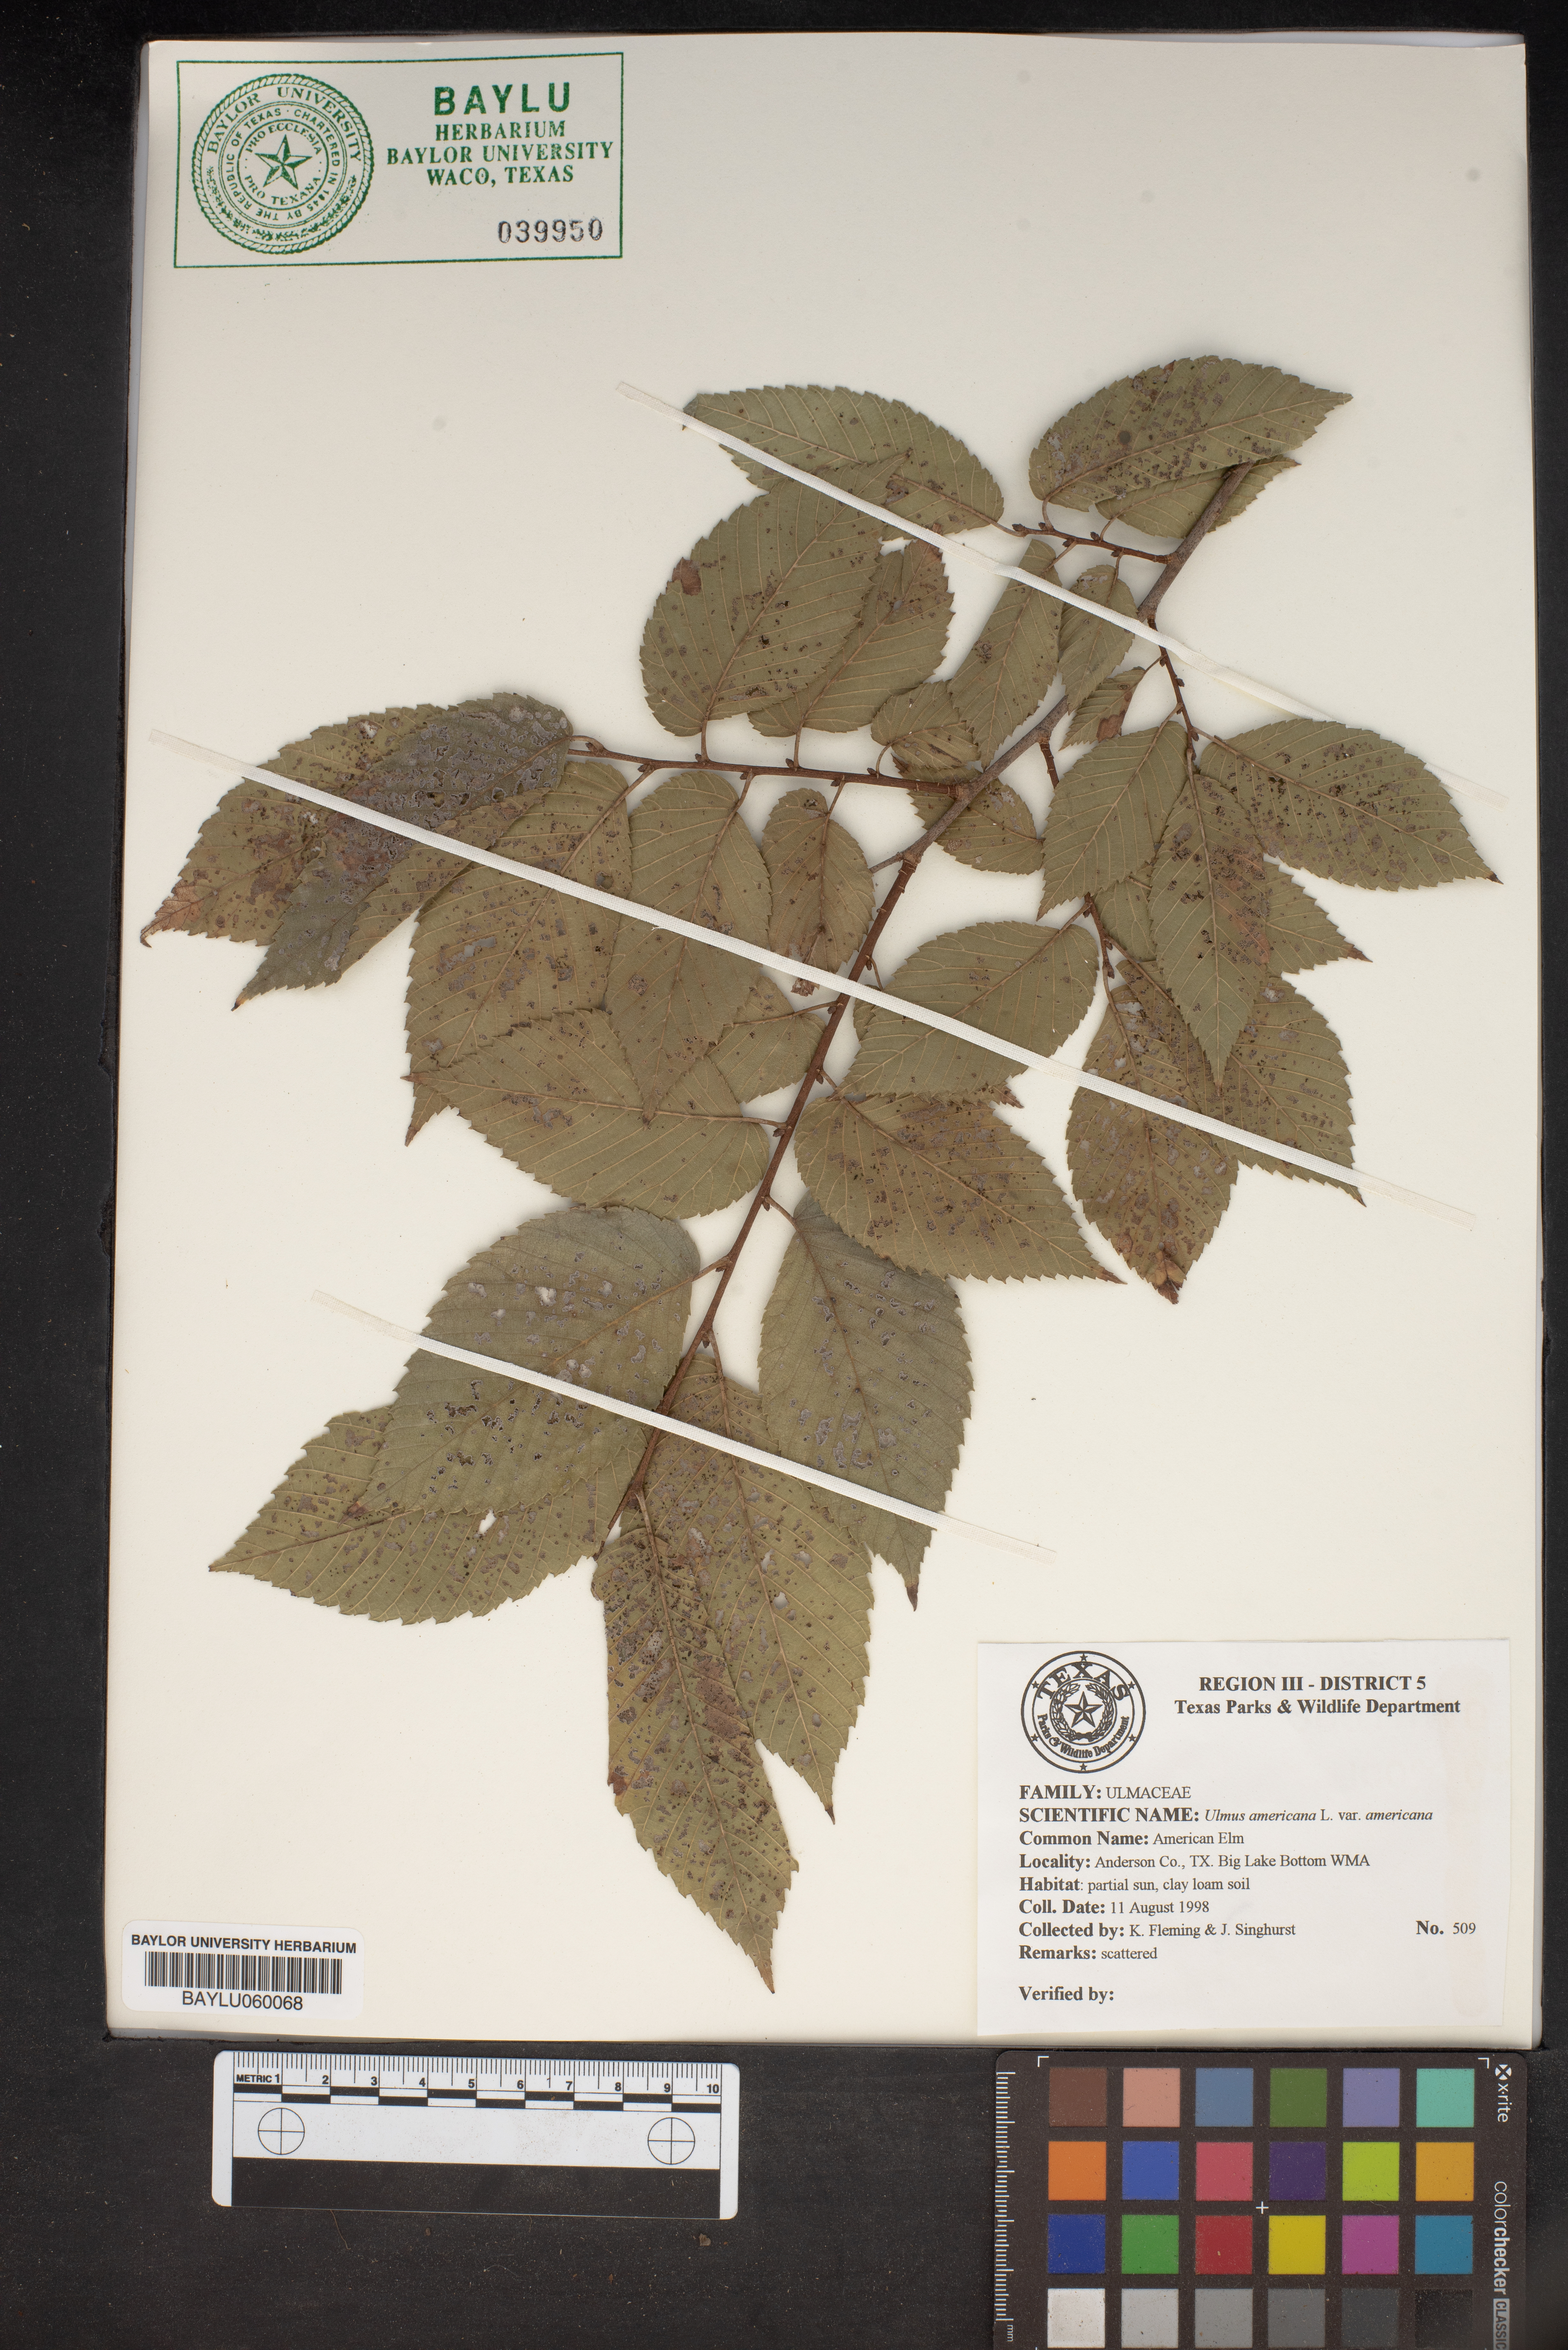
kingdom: Plantae
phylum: Tracheophyta
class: Magnoliopsida
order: Rosales
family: Ulmaceae
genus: Ulmus
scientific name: Ulmus americana
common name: American elm
